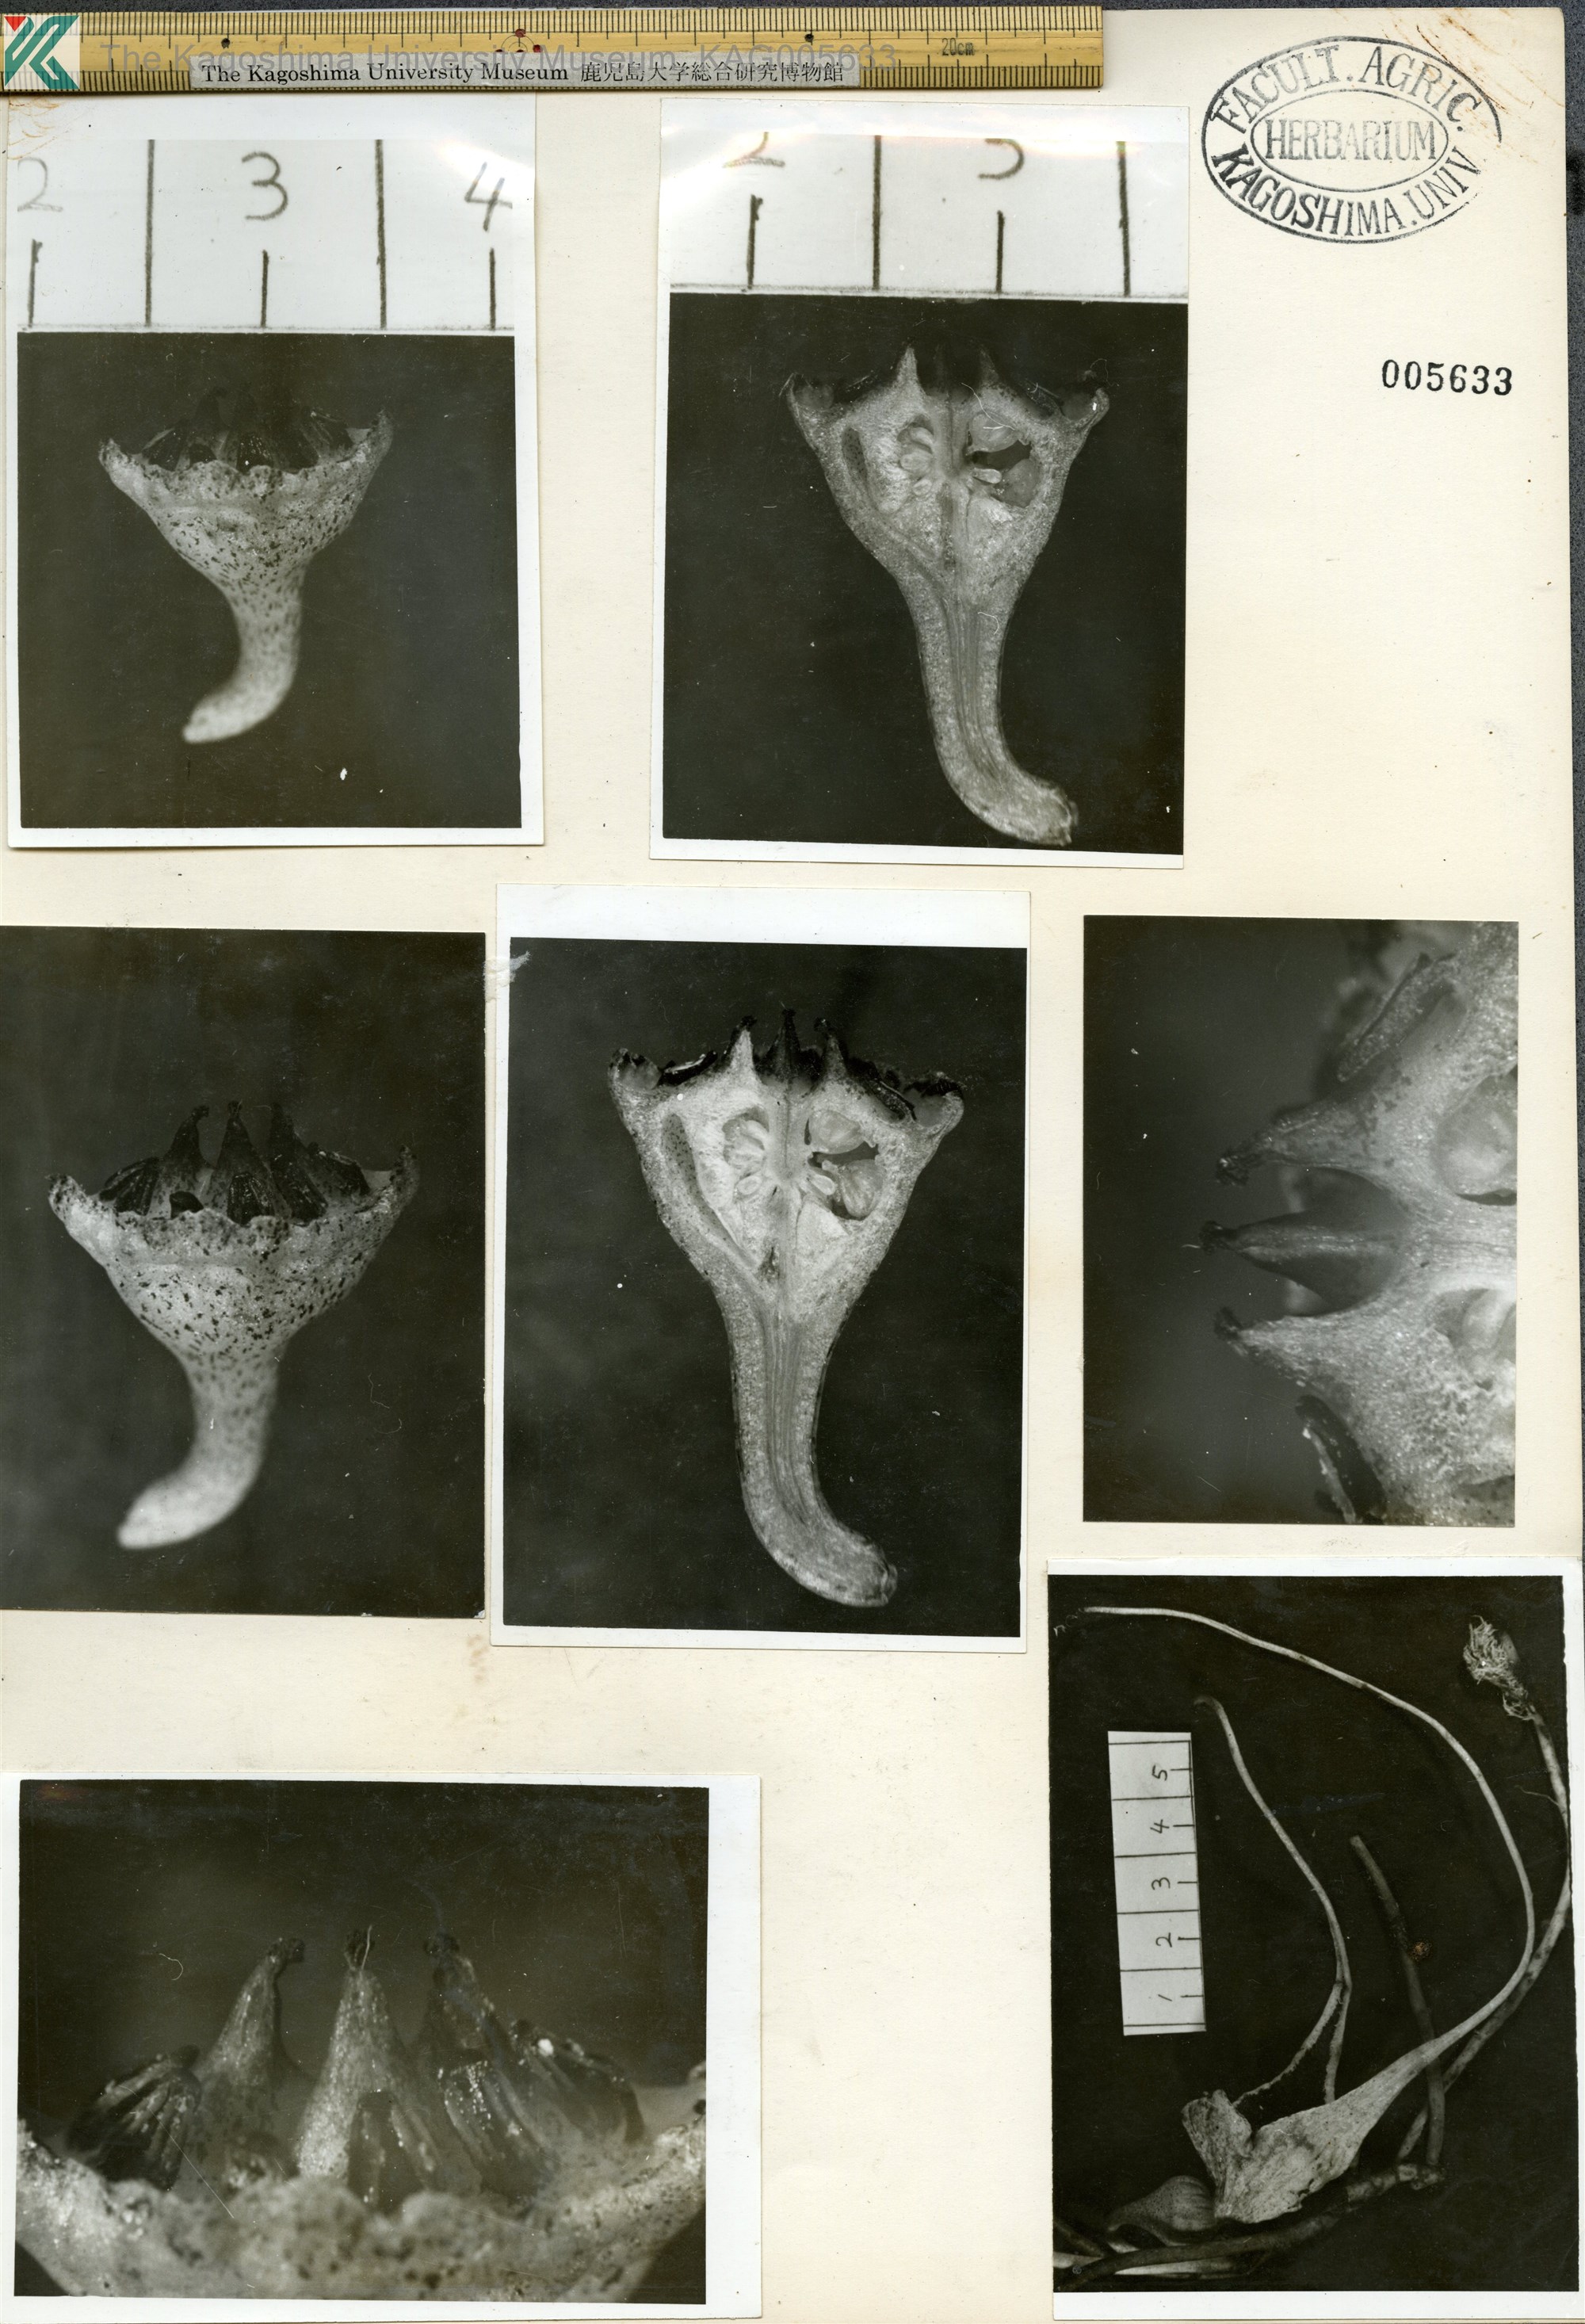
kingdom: Plantae
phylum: Tracheophyta
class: Magnoliopsida
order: Piperales
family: Aristolochiaceae
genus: Asarum
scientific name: Asarum minamitanianum
